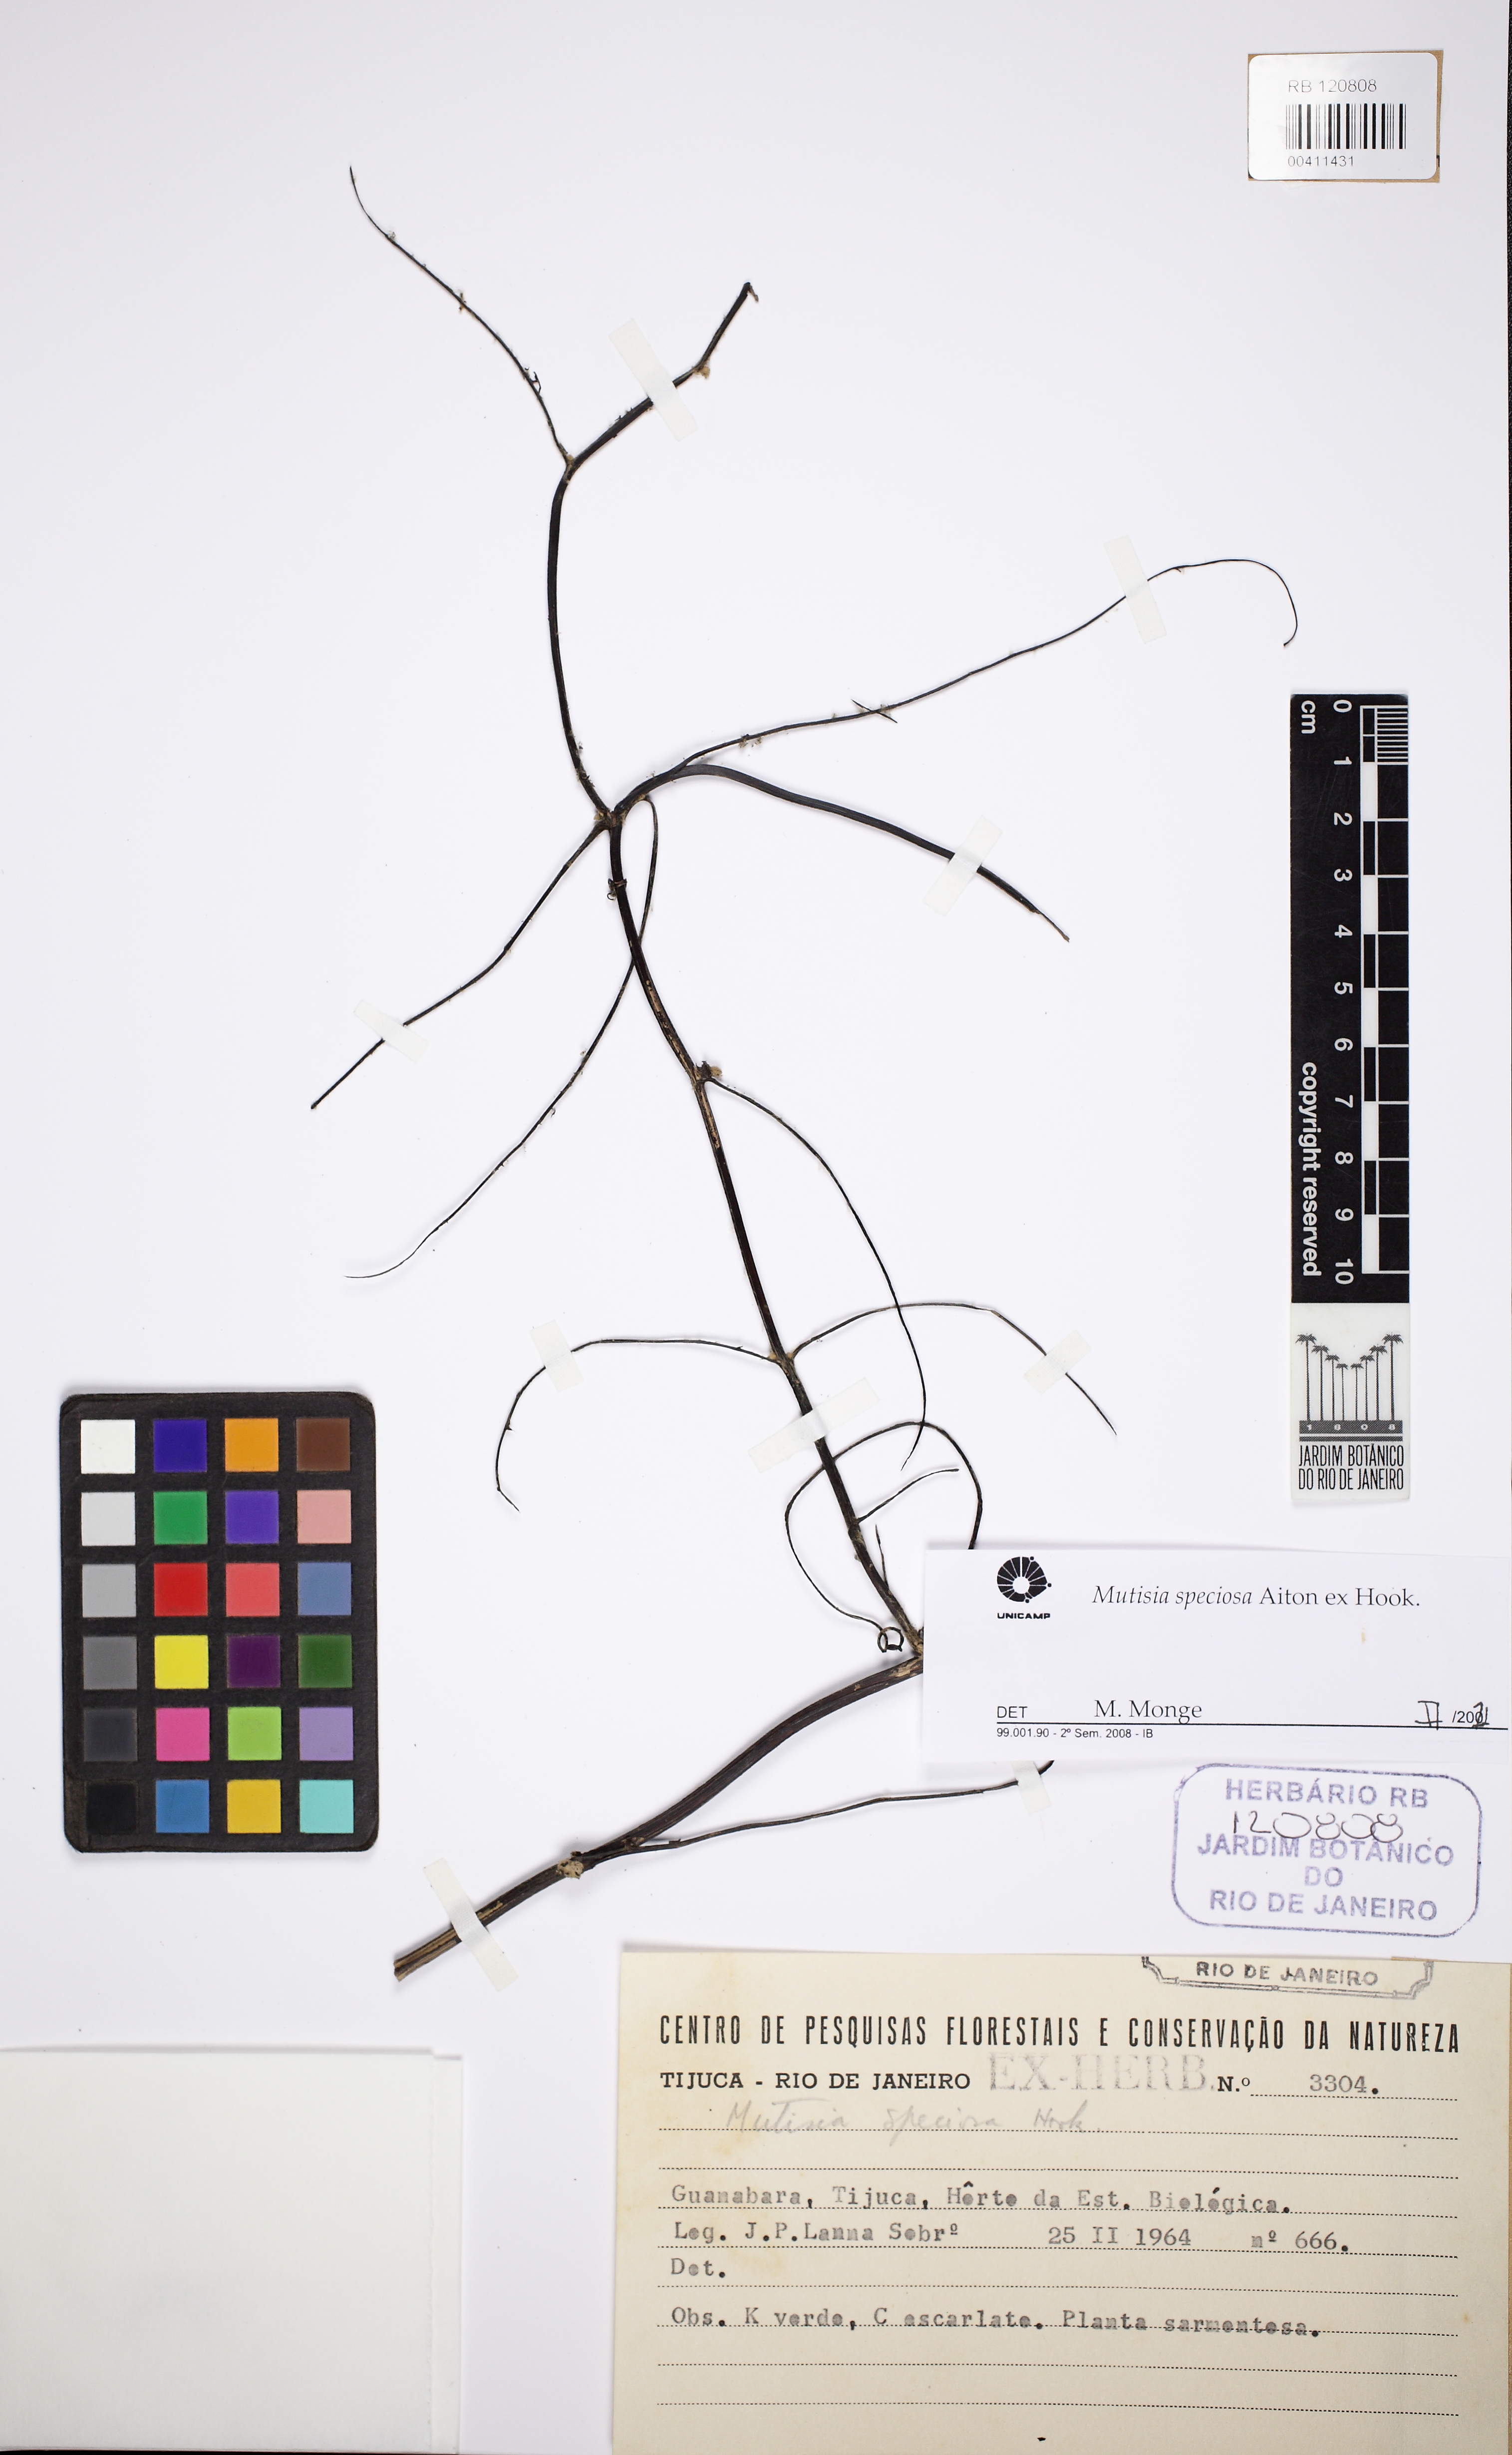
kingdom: Plantae
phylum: Tracheophyta
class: Magnoliopsida
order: Asterales
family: Asteraceae
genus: Mutisia
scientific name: Mutisia speciosa
